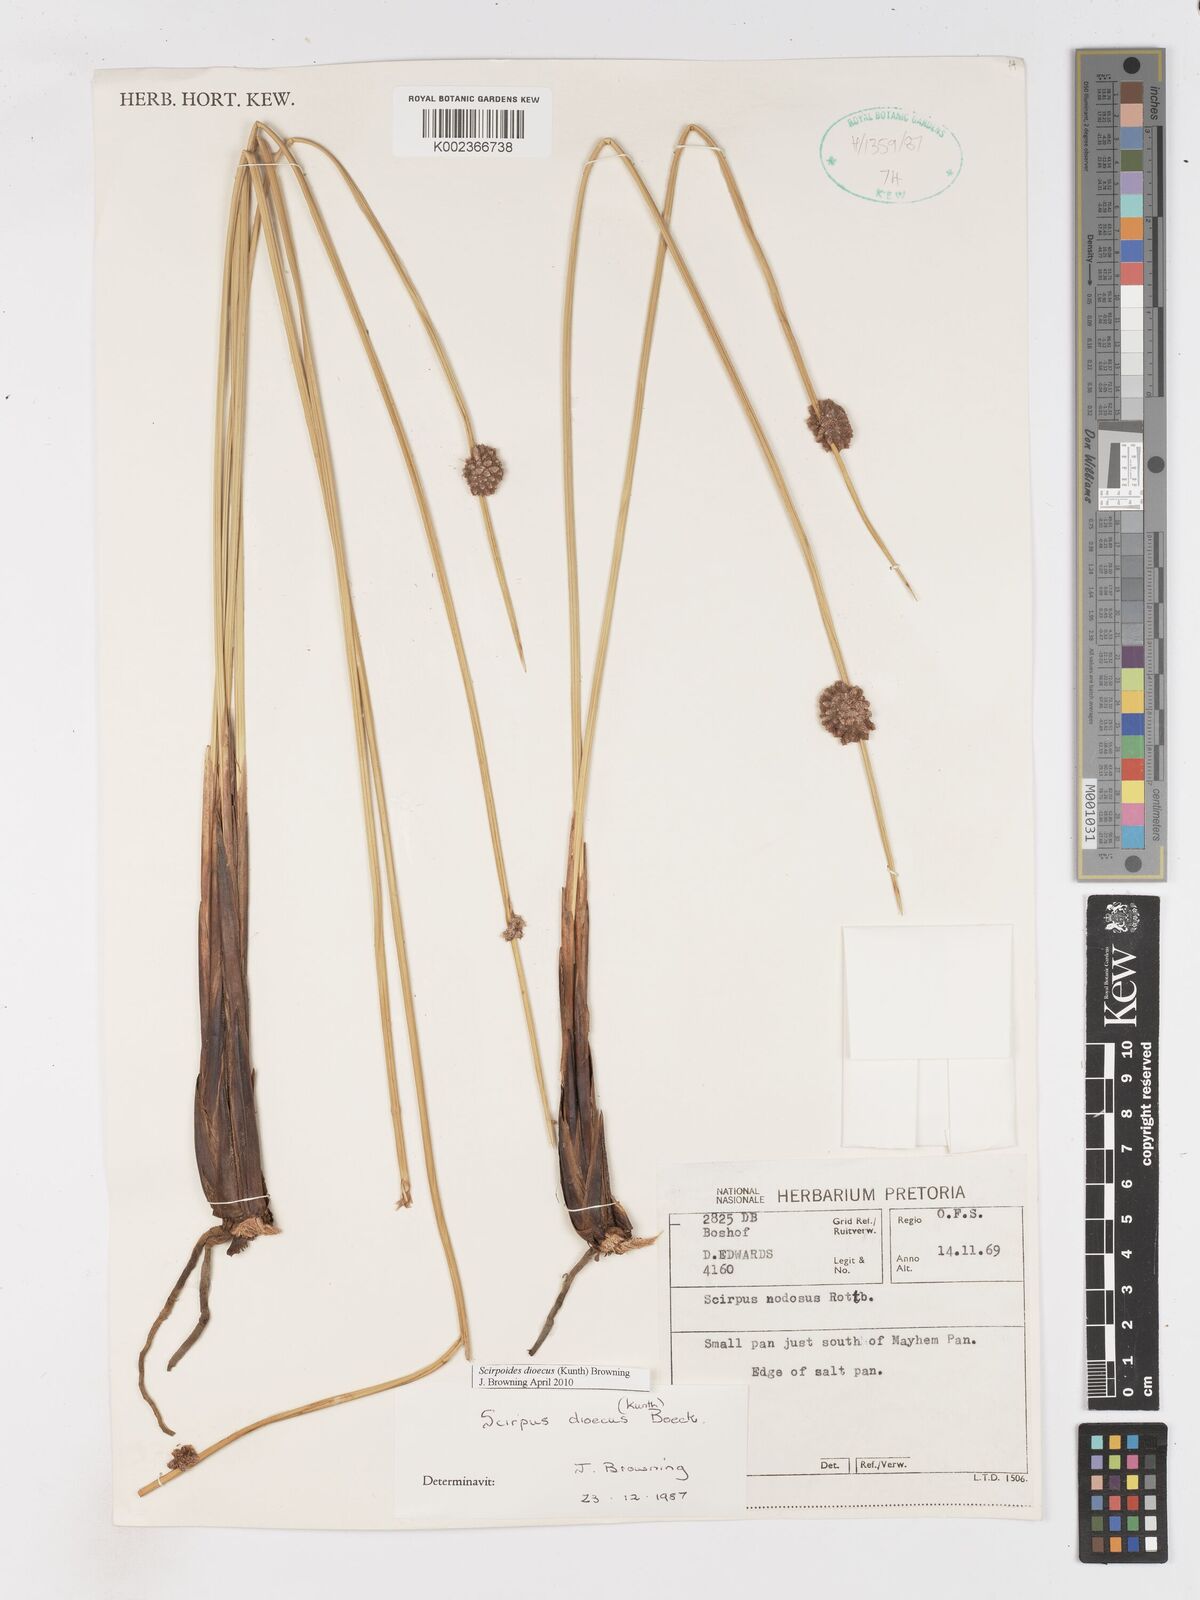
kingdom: Plantae
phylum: Tracheophyta
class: Liliopsida
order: Poales
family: Cyperaceae
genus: Afroscirpoides
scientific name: Afroscirpoides dioeca
